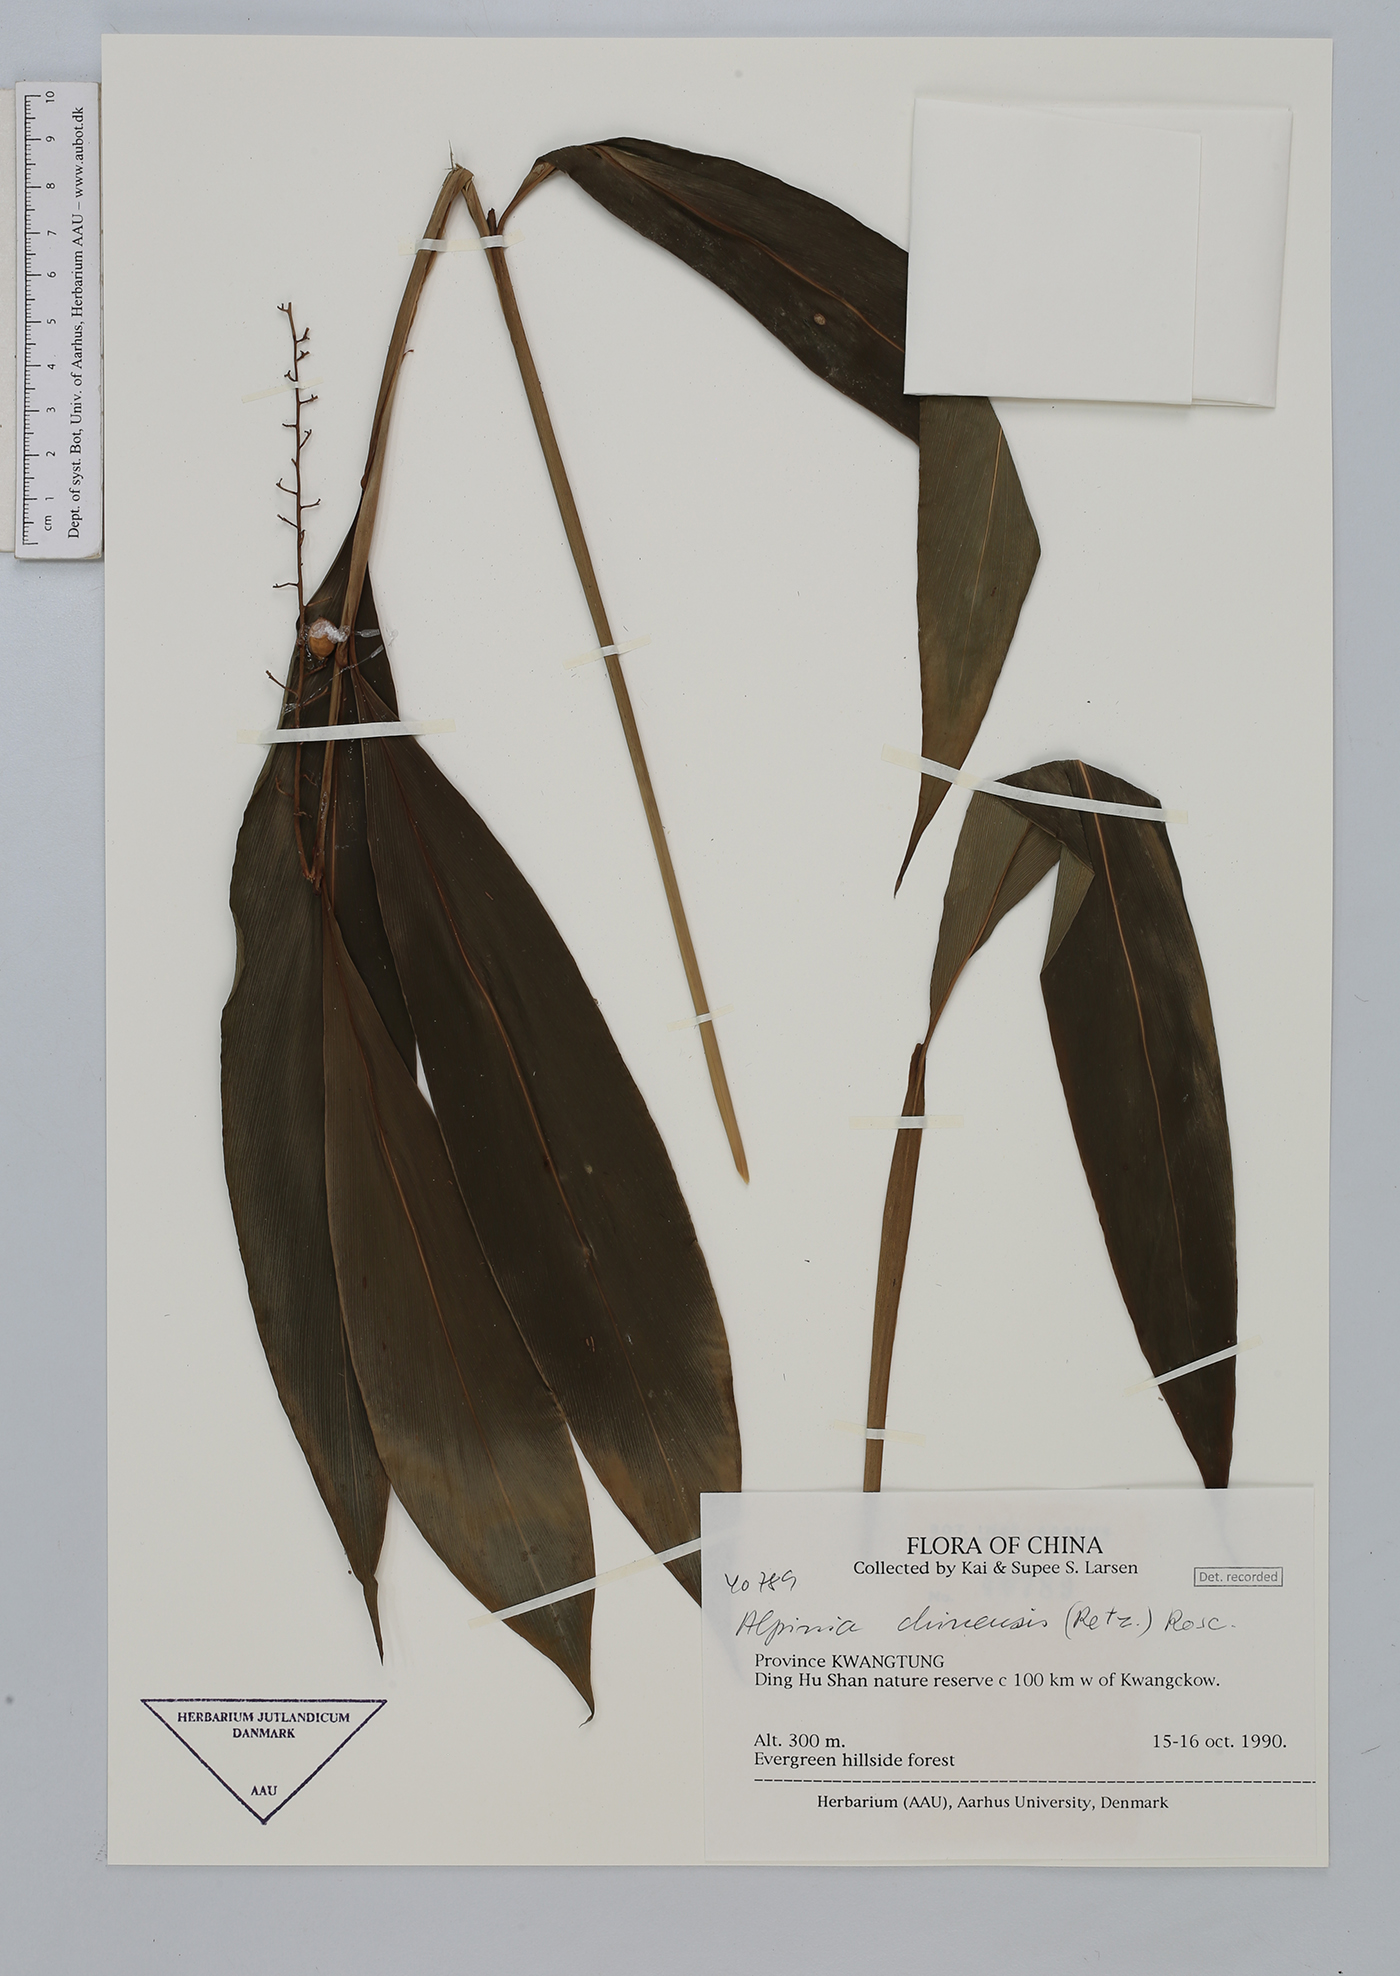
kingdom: Plantae
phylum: Tracheophyta
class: Liliopsida
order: Zingiberales
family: Zingiberaceae
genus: Alpinia
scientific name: Alpinia chinensis
